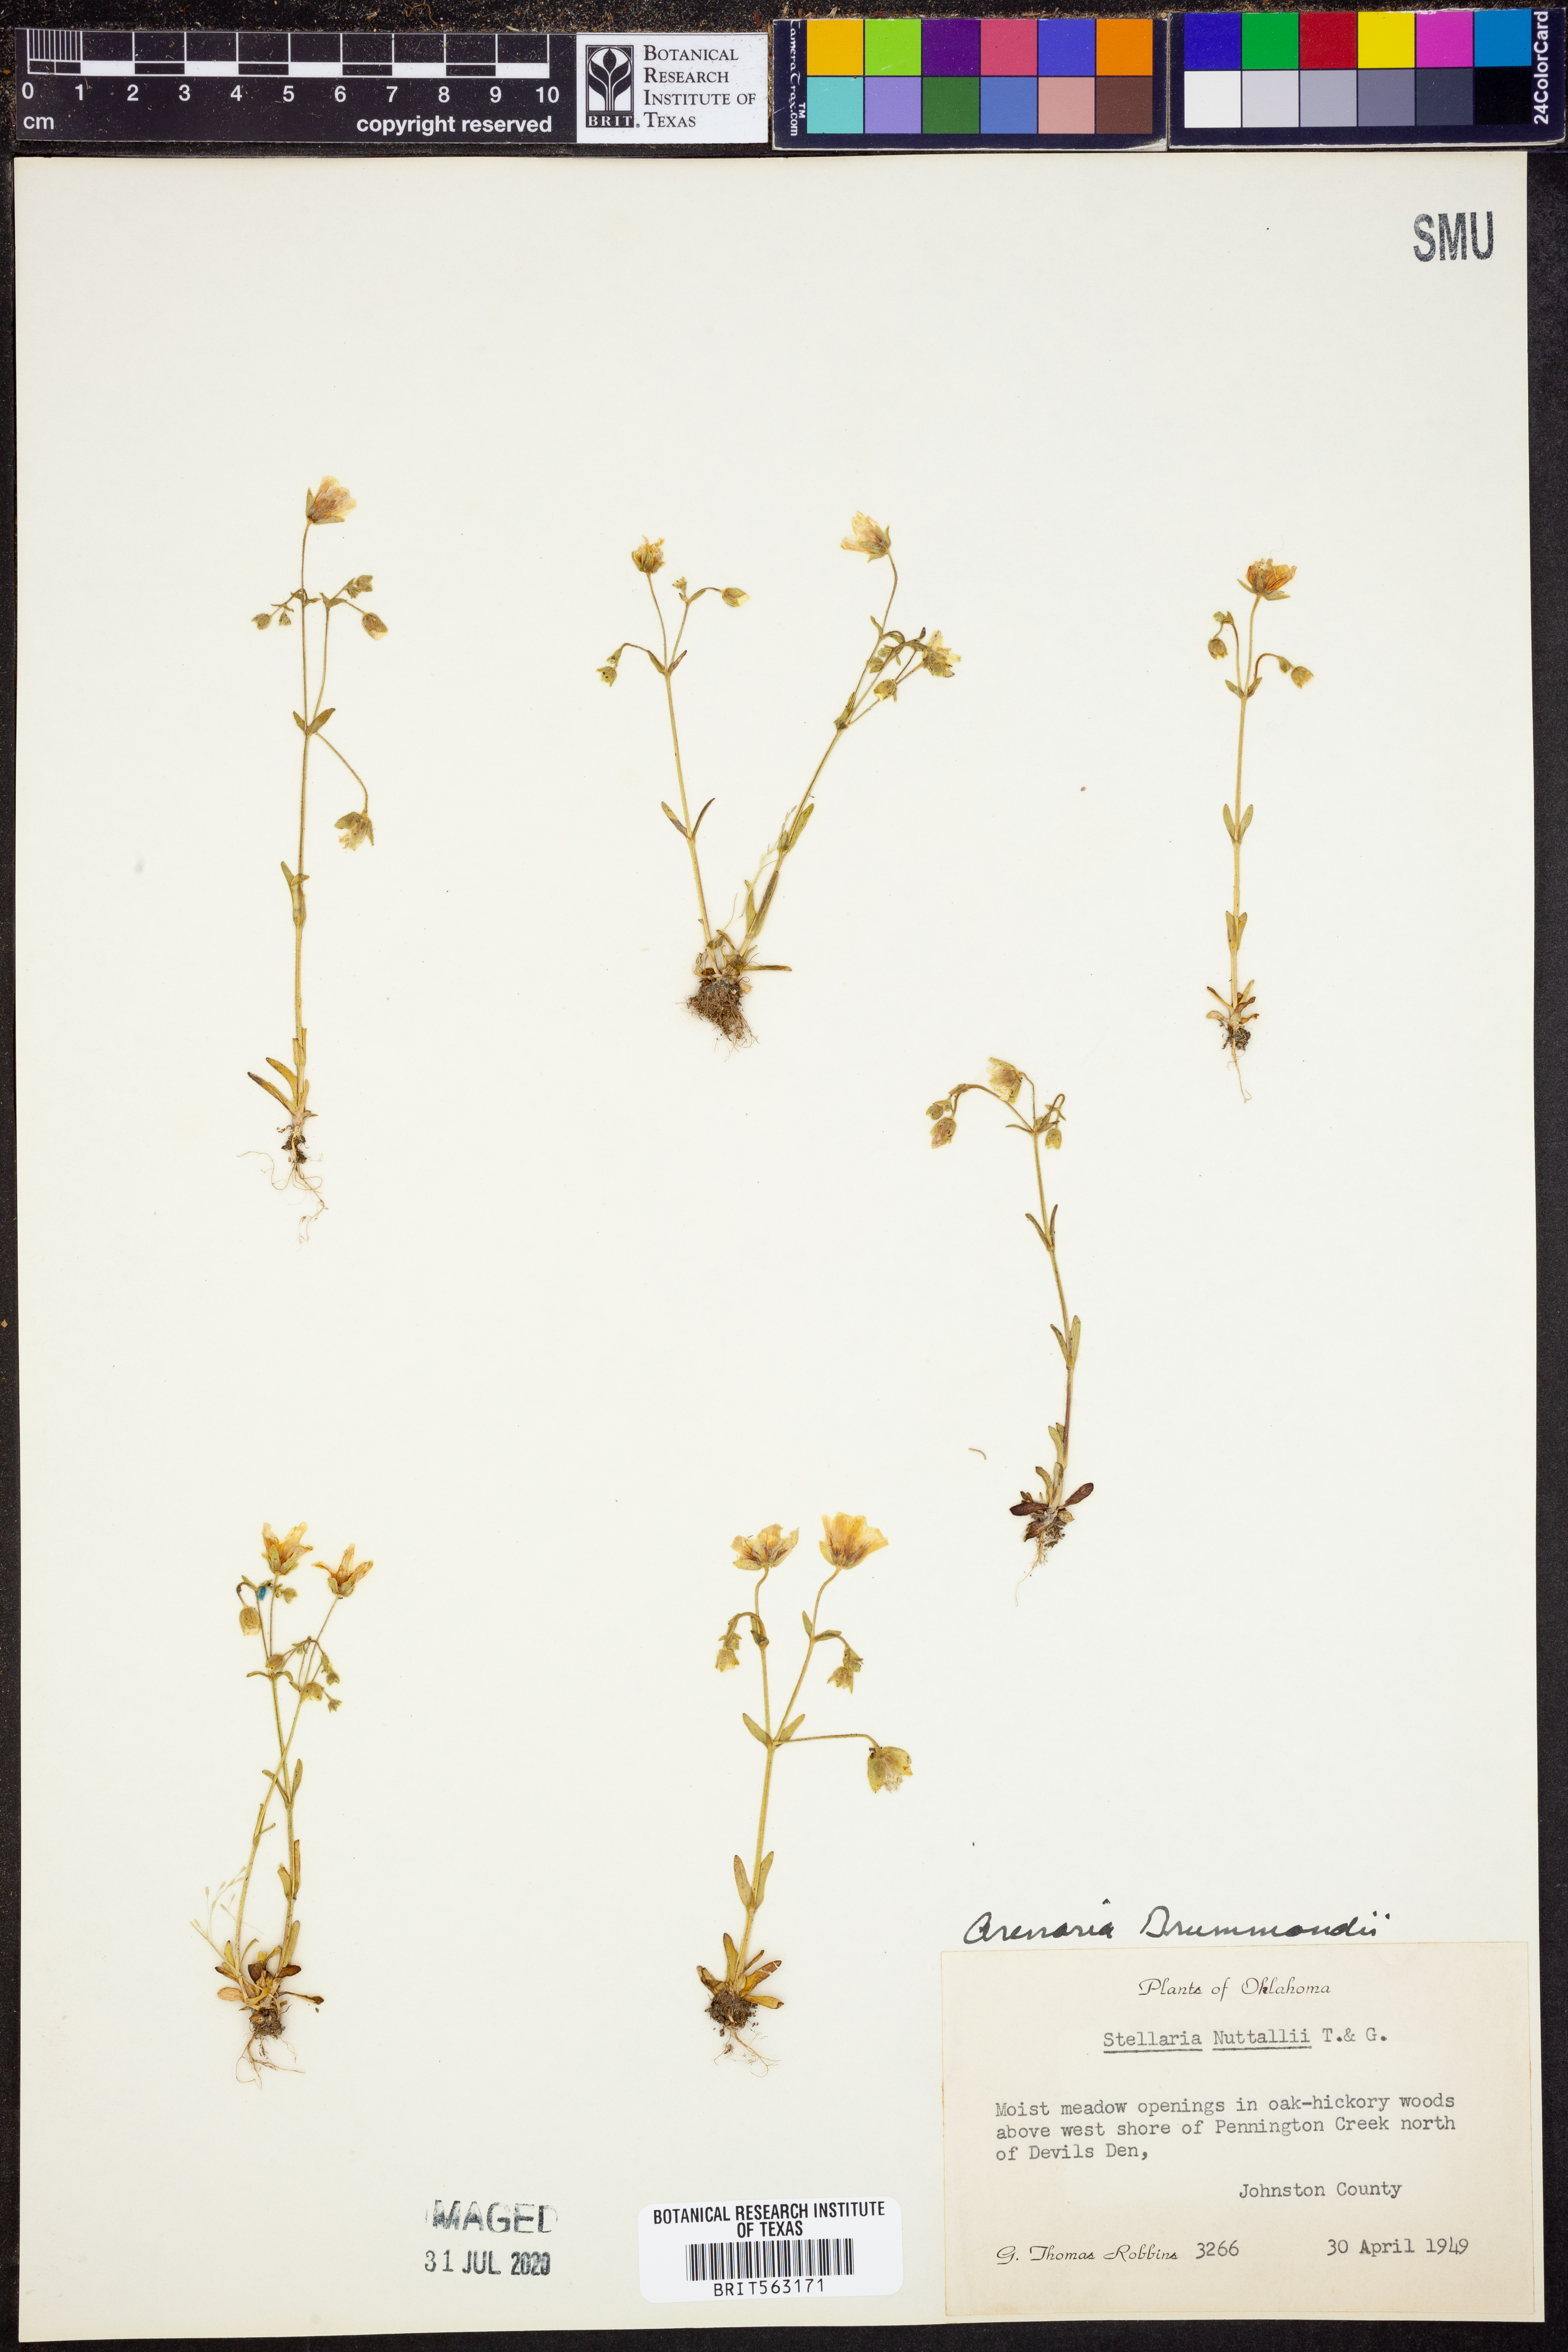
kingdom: Plantae
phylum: Tracheophyta
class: Magnoliopsida
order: Caryophyllales
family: Caryophyllaceae
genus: Geocarpon
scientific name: Geocarpon nuttallii
